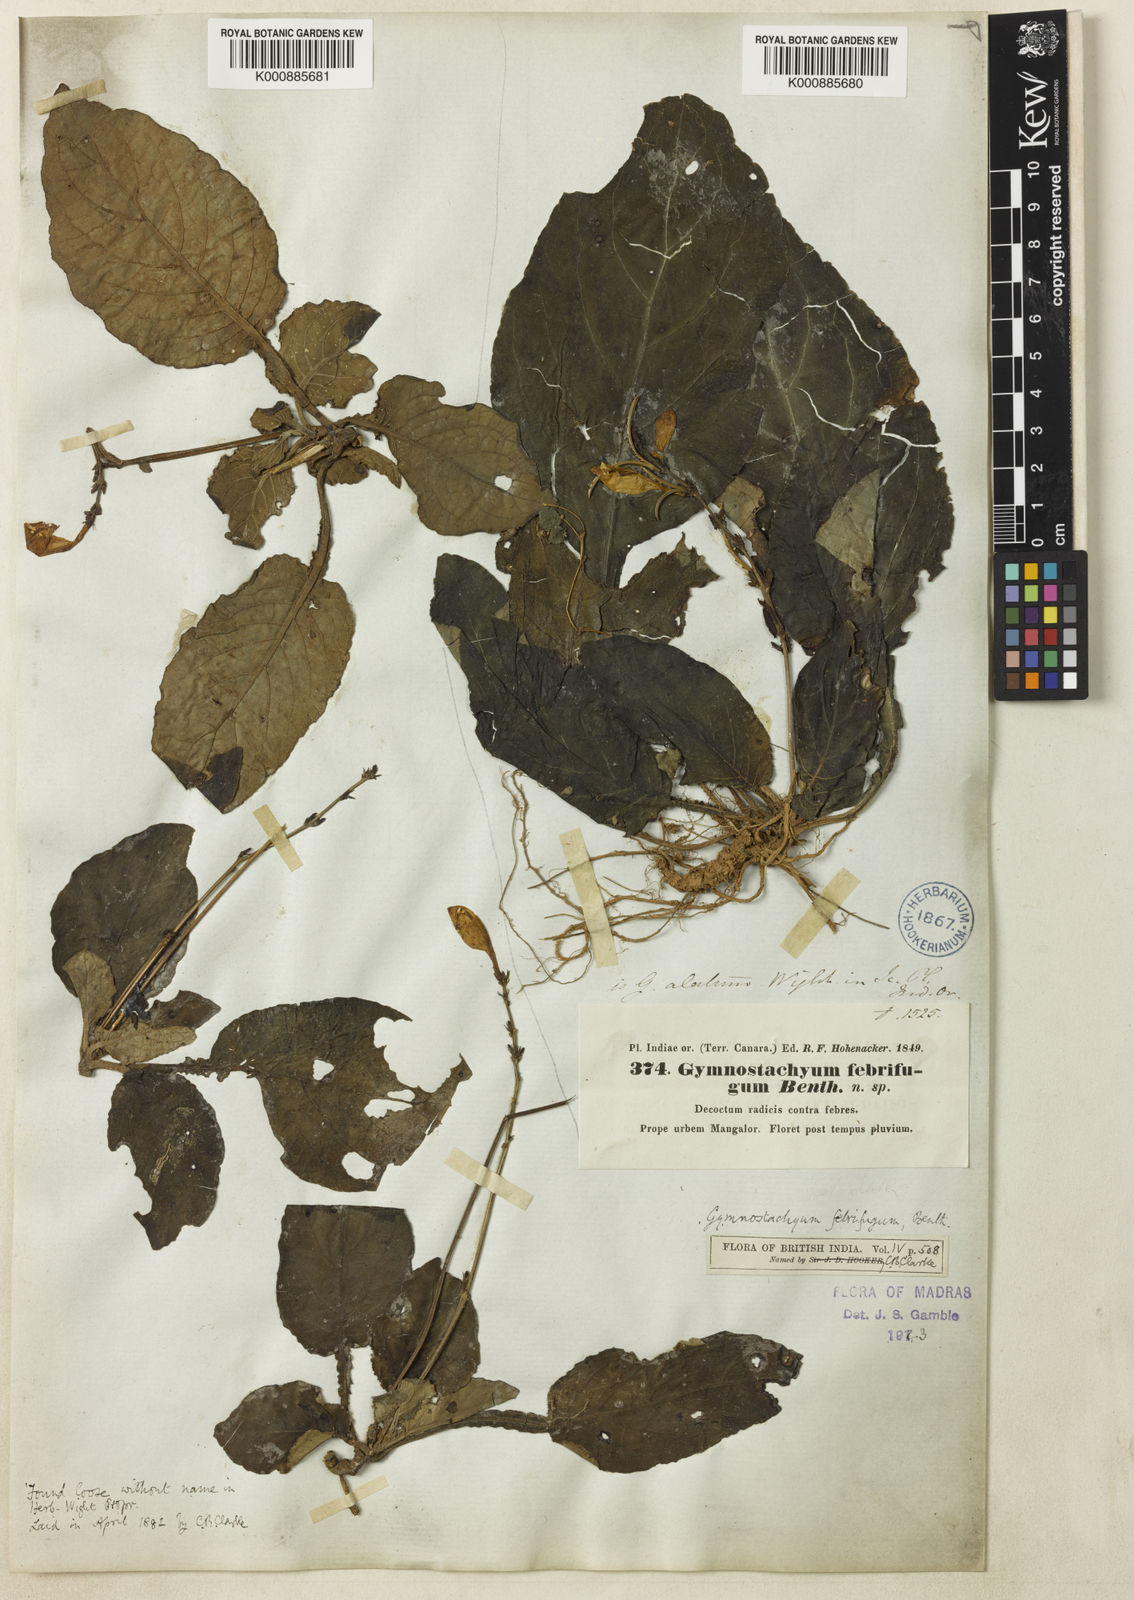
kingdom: Plantae
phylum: Tracheophyta
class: Magnoliopsida
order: Lamiales
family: Acanthaceae
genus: Gymnostachyum
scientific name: Gymnostachyum febrifugum
